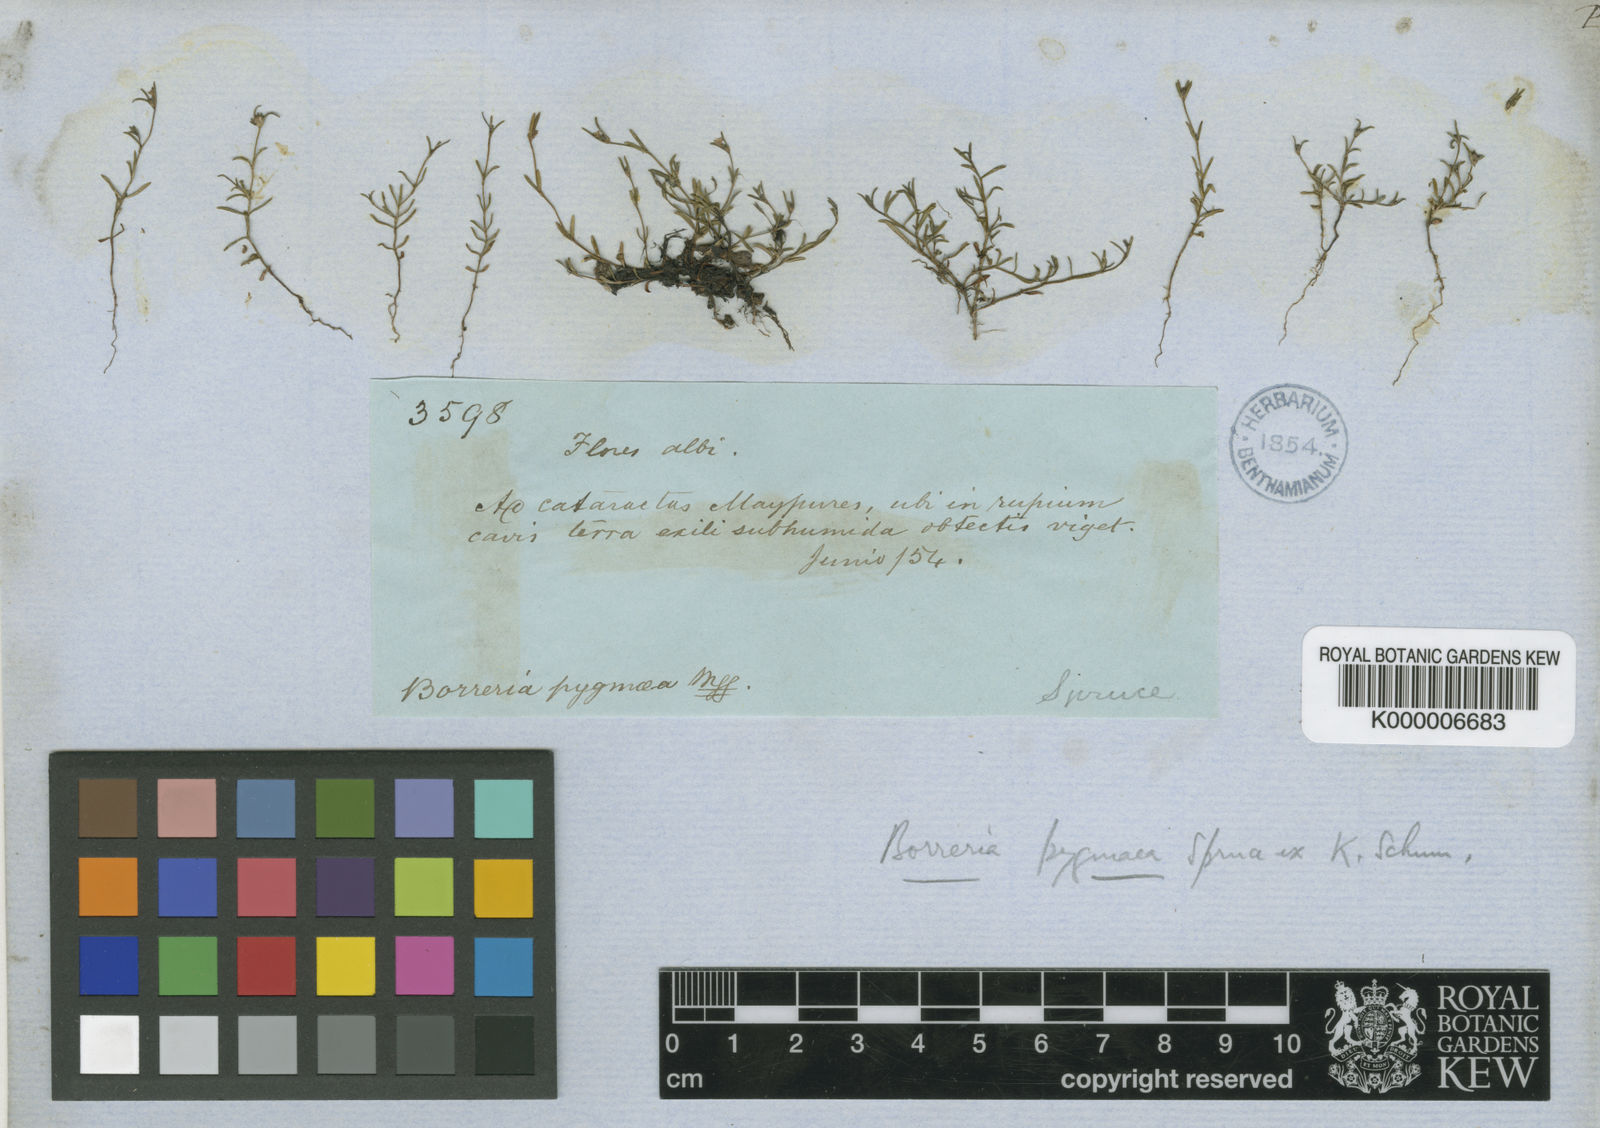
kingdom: Plantae
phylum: Tracheophyta
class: Magnoliopsida
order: Gentianales
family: Rubiaceae
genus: Spermacoce
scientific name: Spermacoce verticillata
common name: Shrubby false buttonweed
